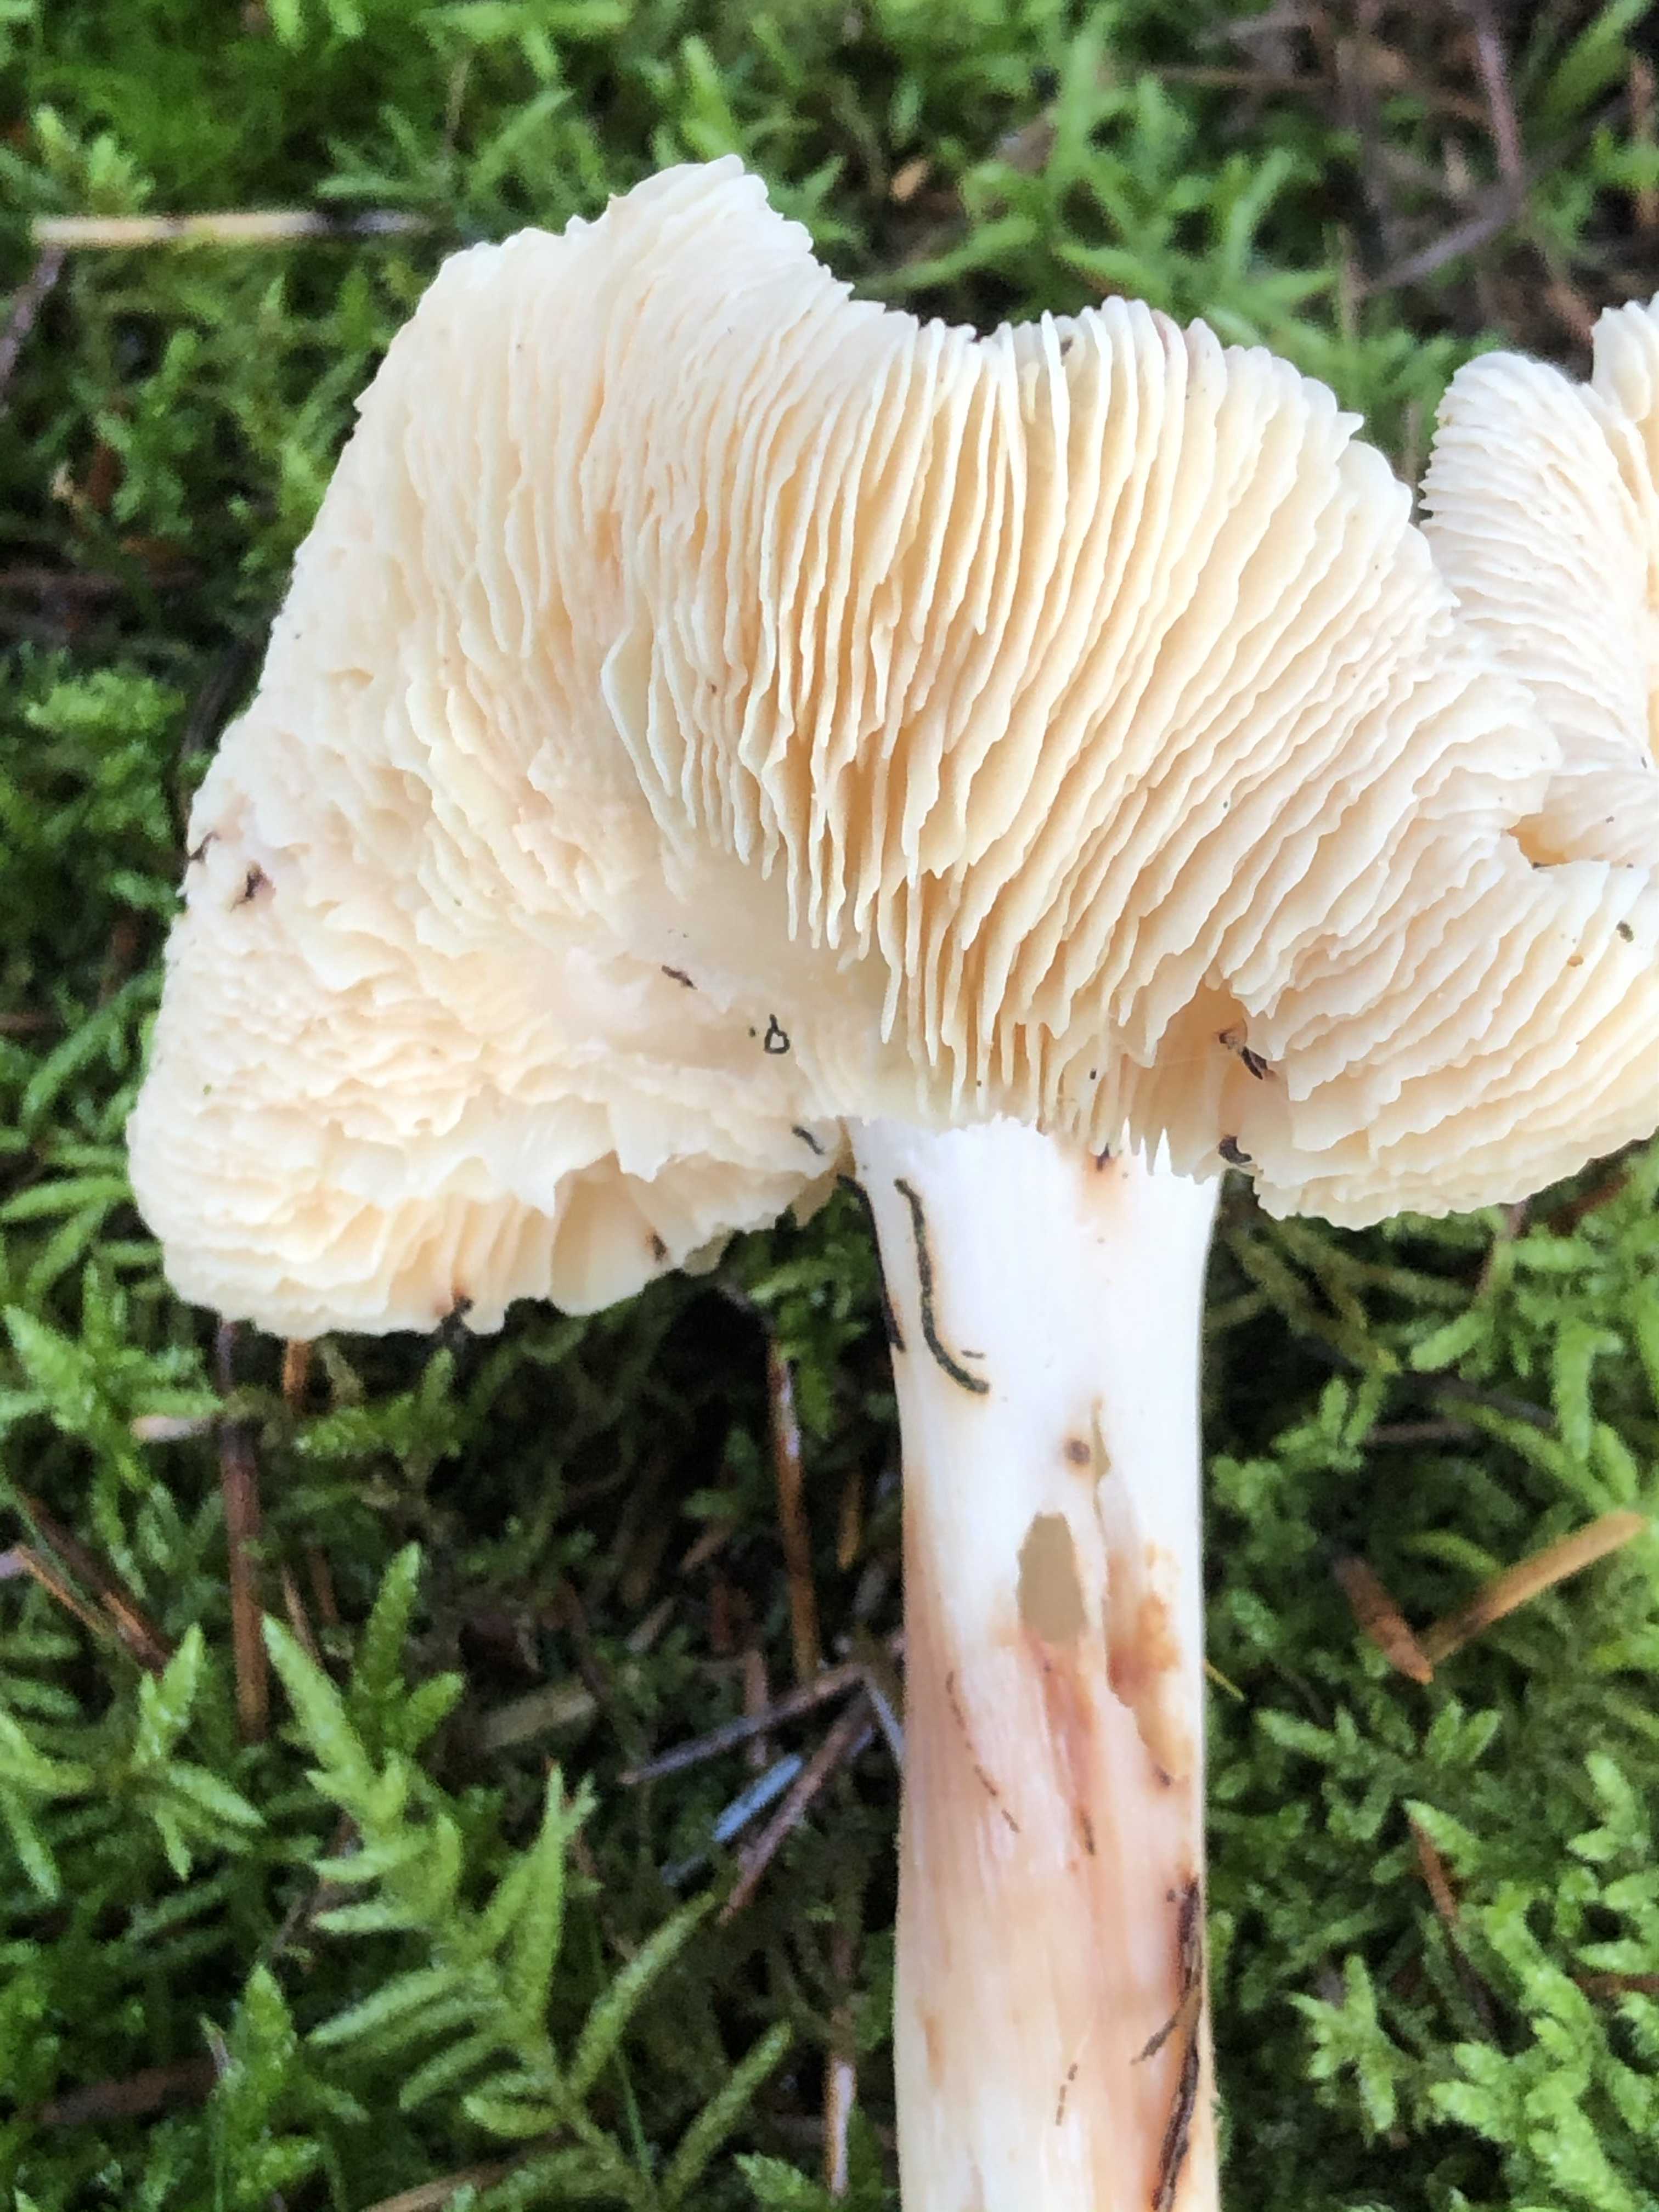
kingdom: Fungi
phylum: Basidiomycota
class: Agaricomycetes
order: Agaricales
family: Omphalotaceae
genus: Rhodocollybia
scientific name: Rhodocollybia maculata
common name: plettet fladhat
